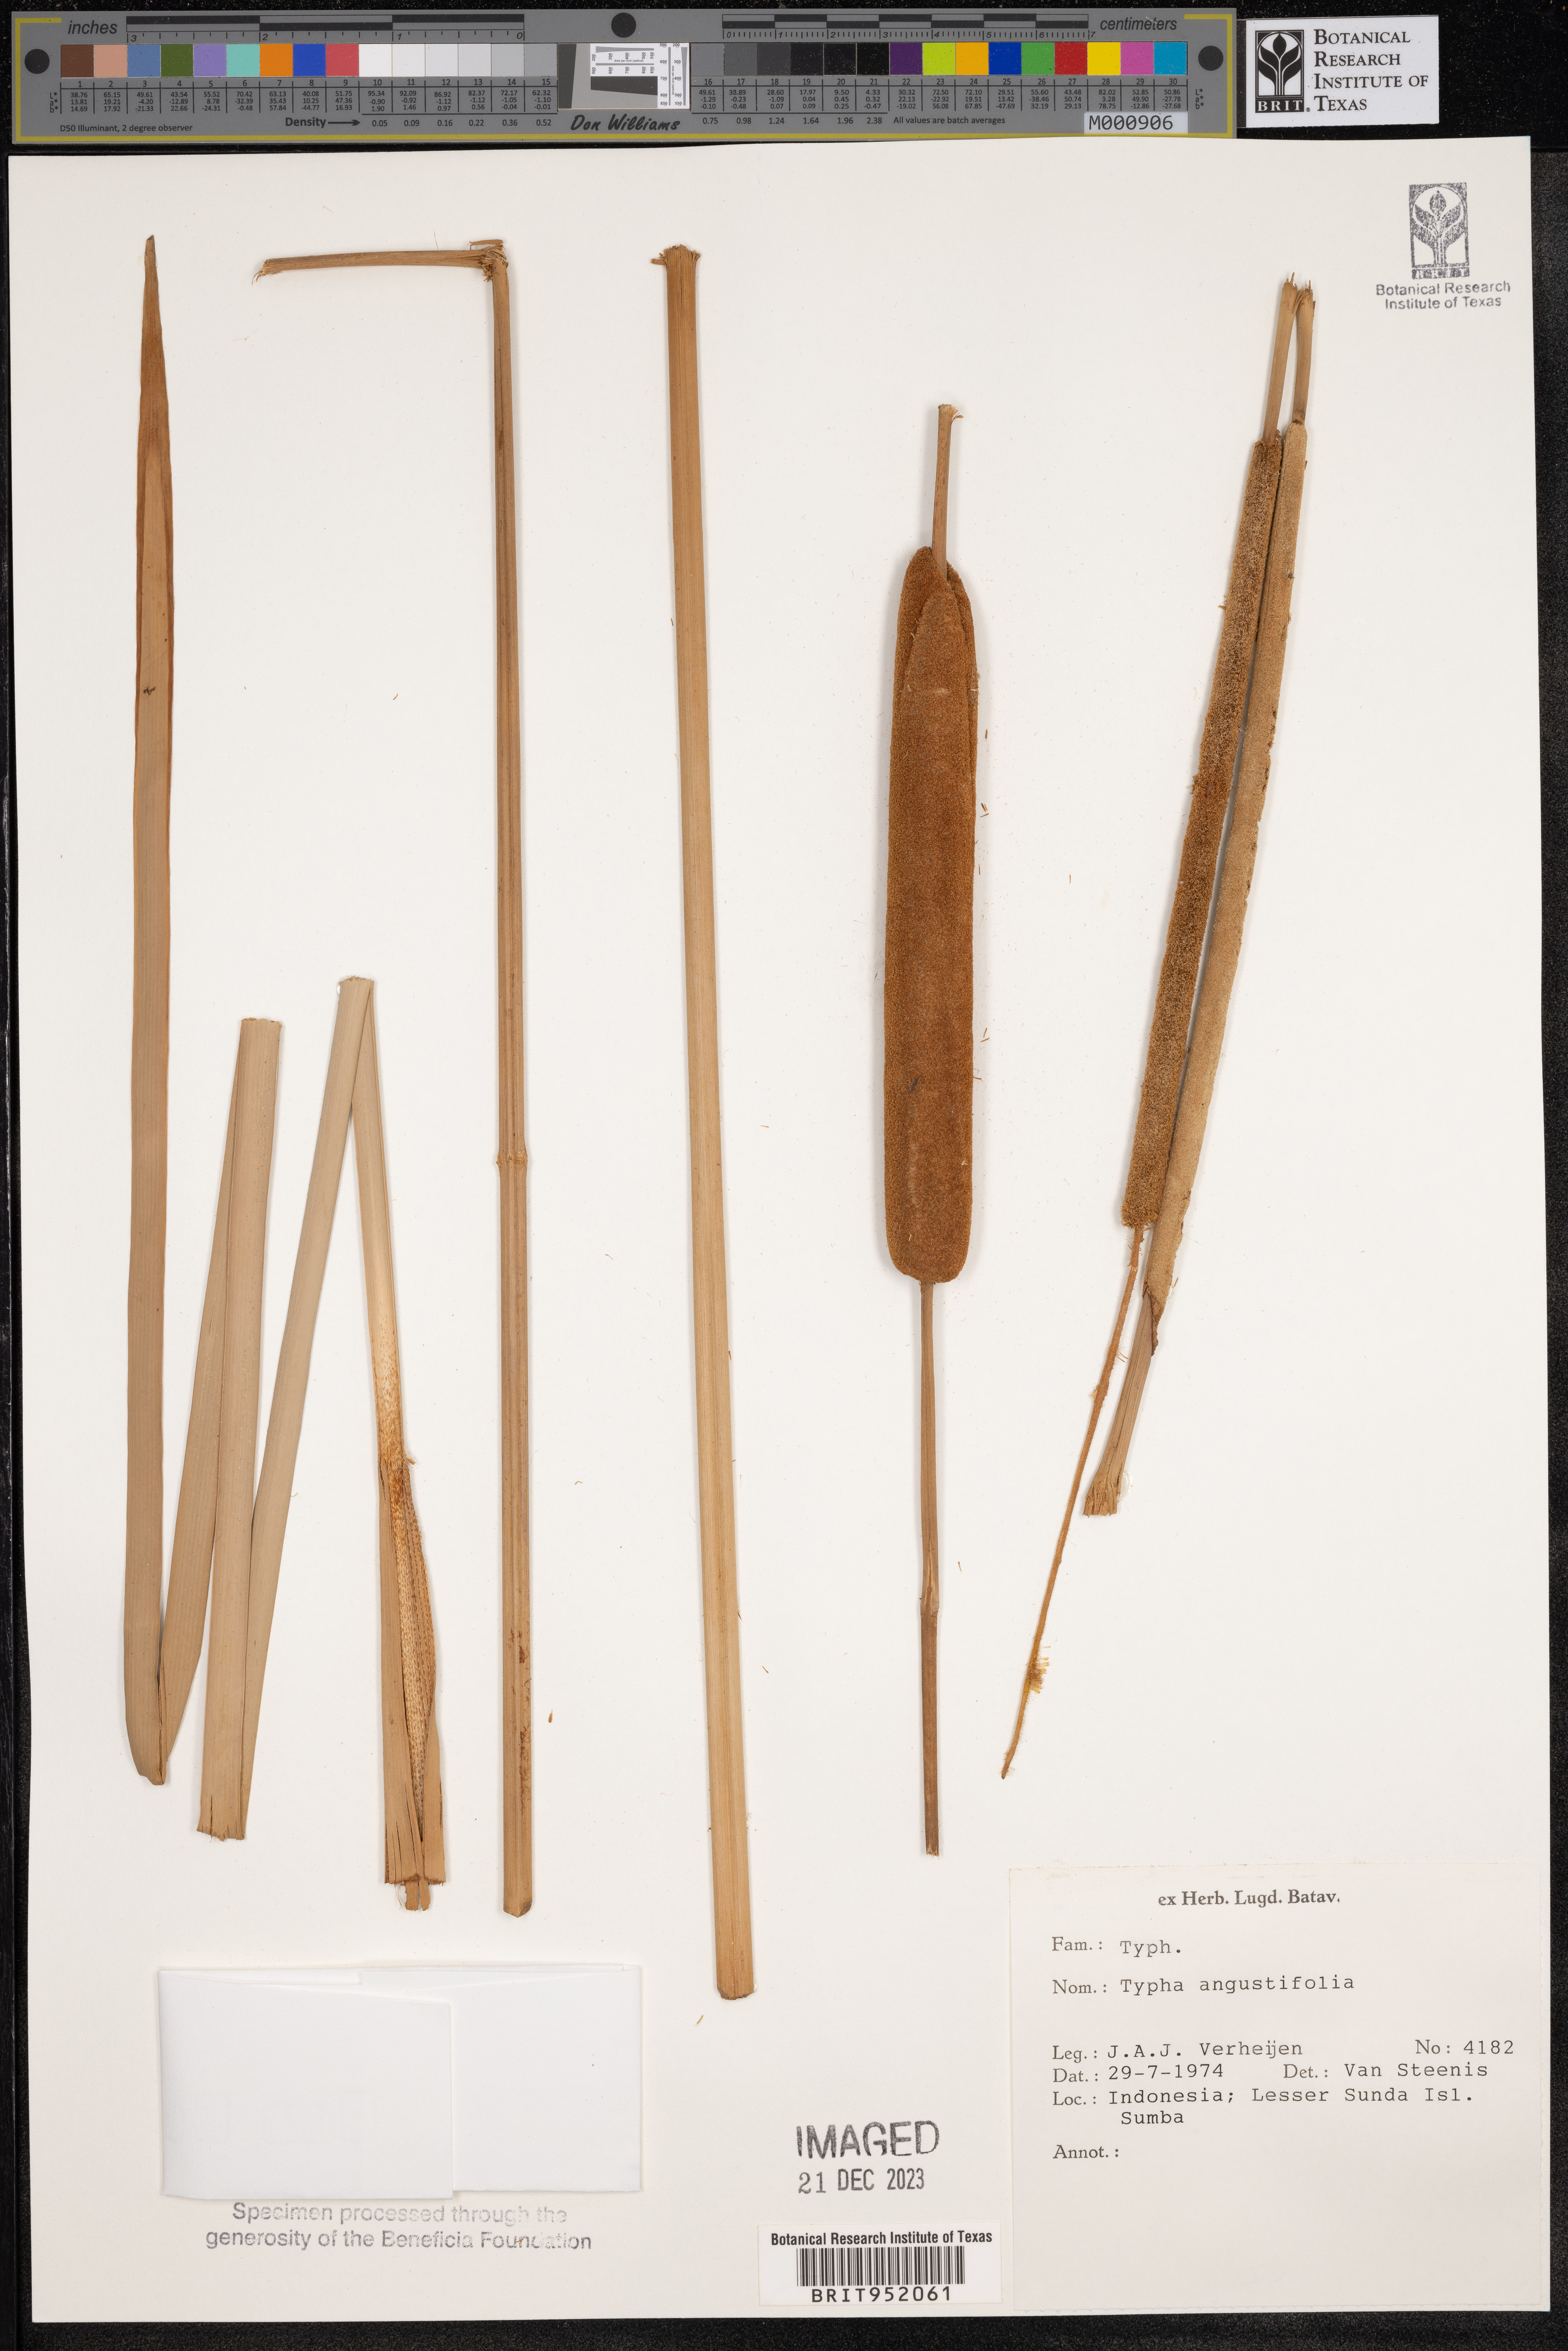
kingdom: Plantae
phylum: Tracheophyta
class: Liliopsida
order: Poales
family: Typhaceae
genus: Typha
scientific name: Typha
